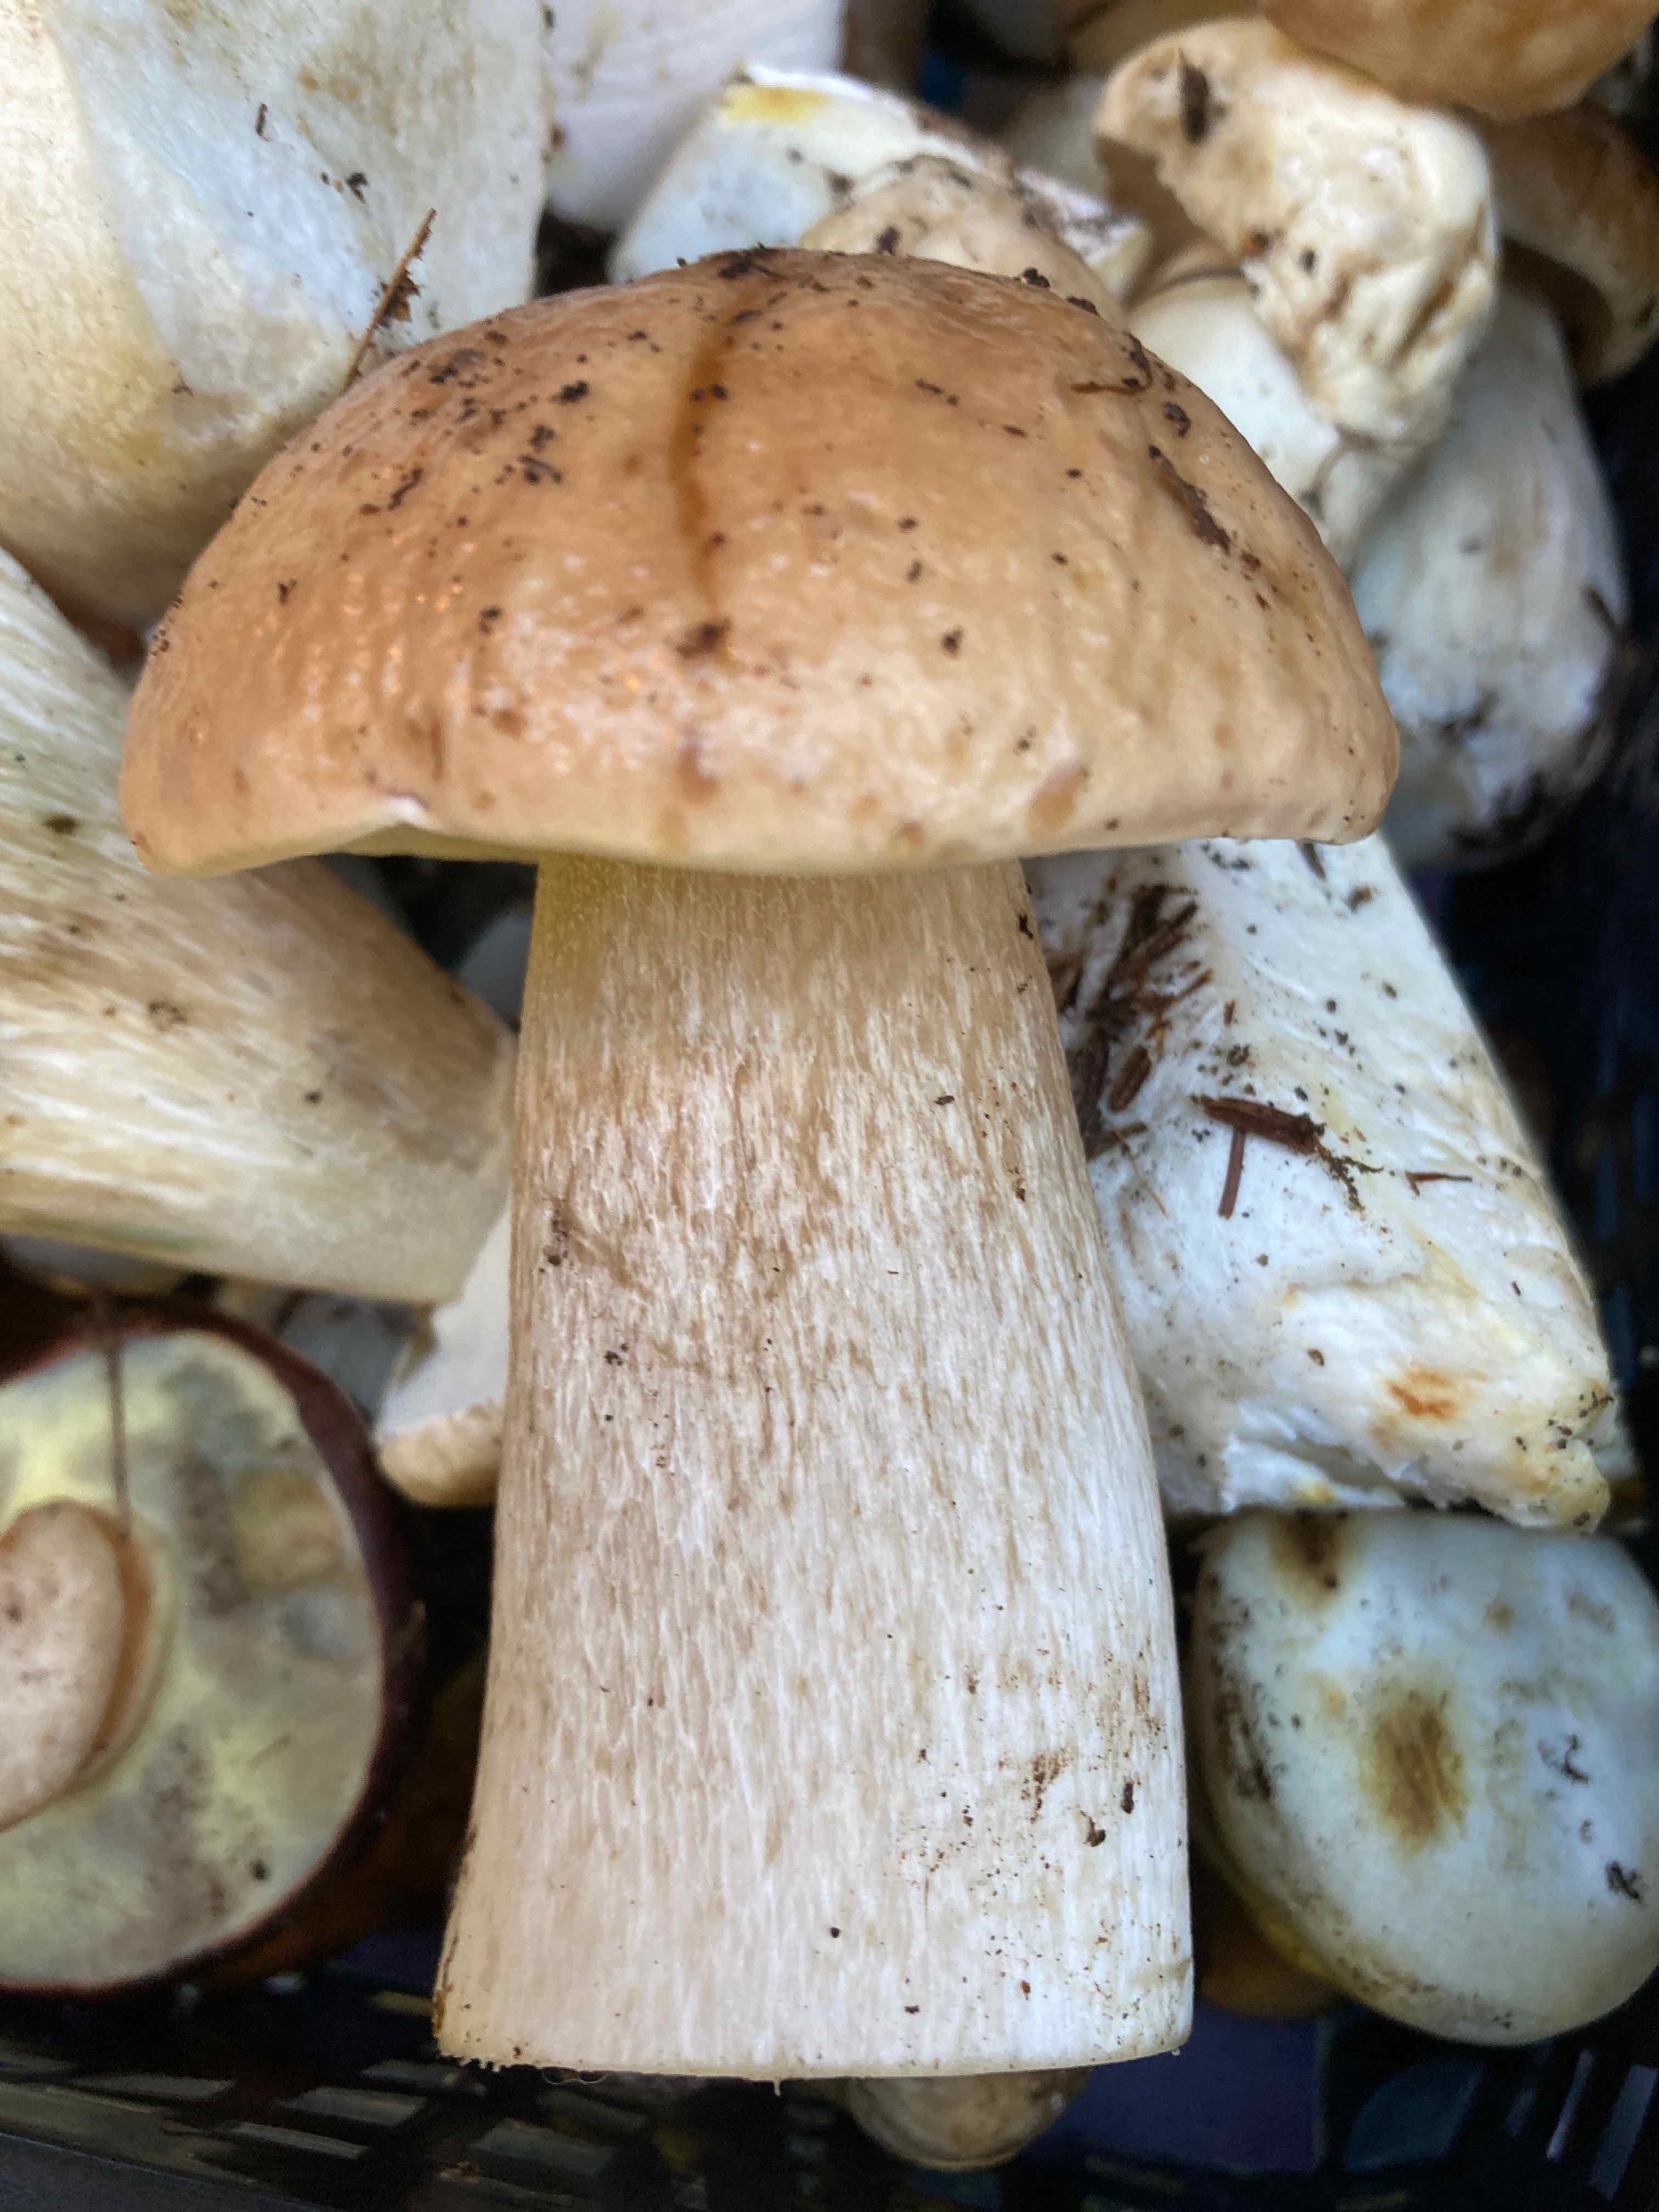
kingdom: Fungi
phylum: Basidiomycota
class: Agaricomycetes
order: Boletales
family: Boletaceae
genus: Boletus
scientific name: Boletus edulis
